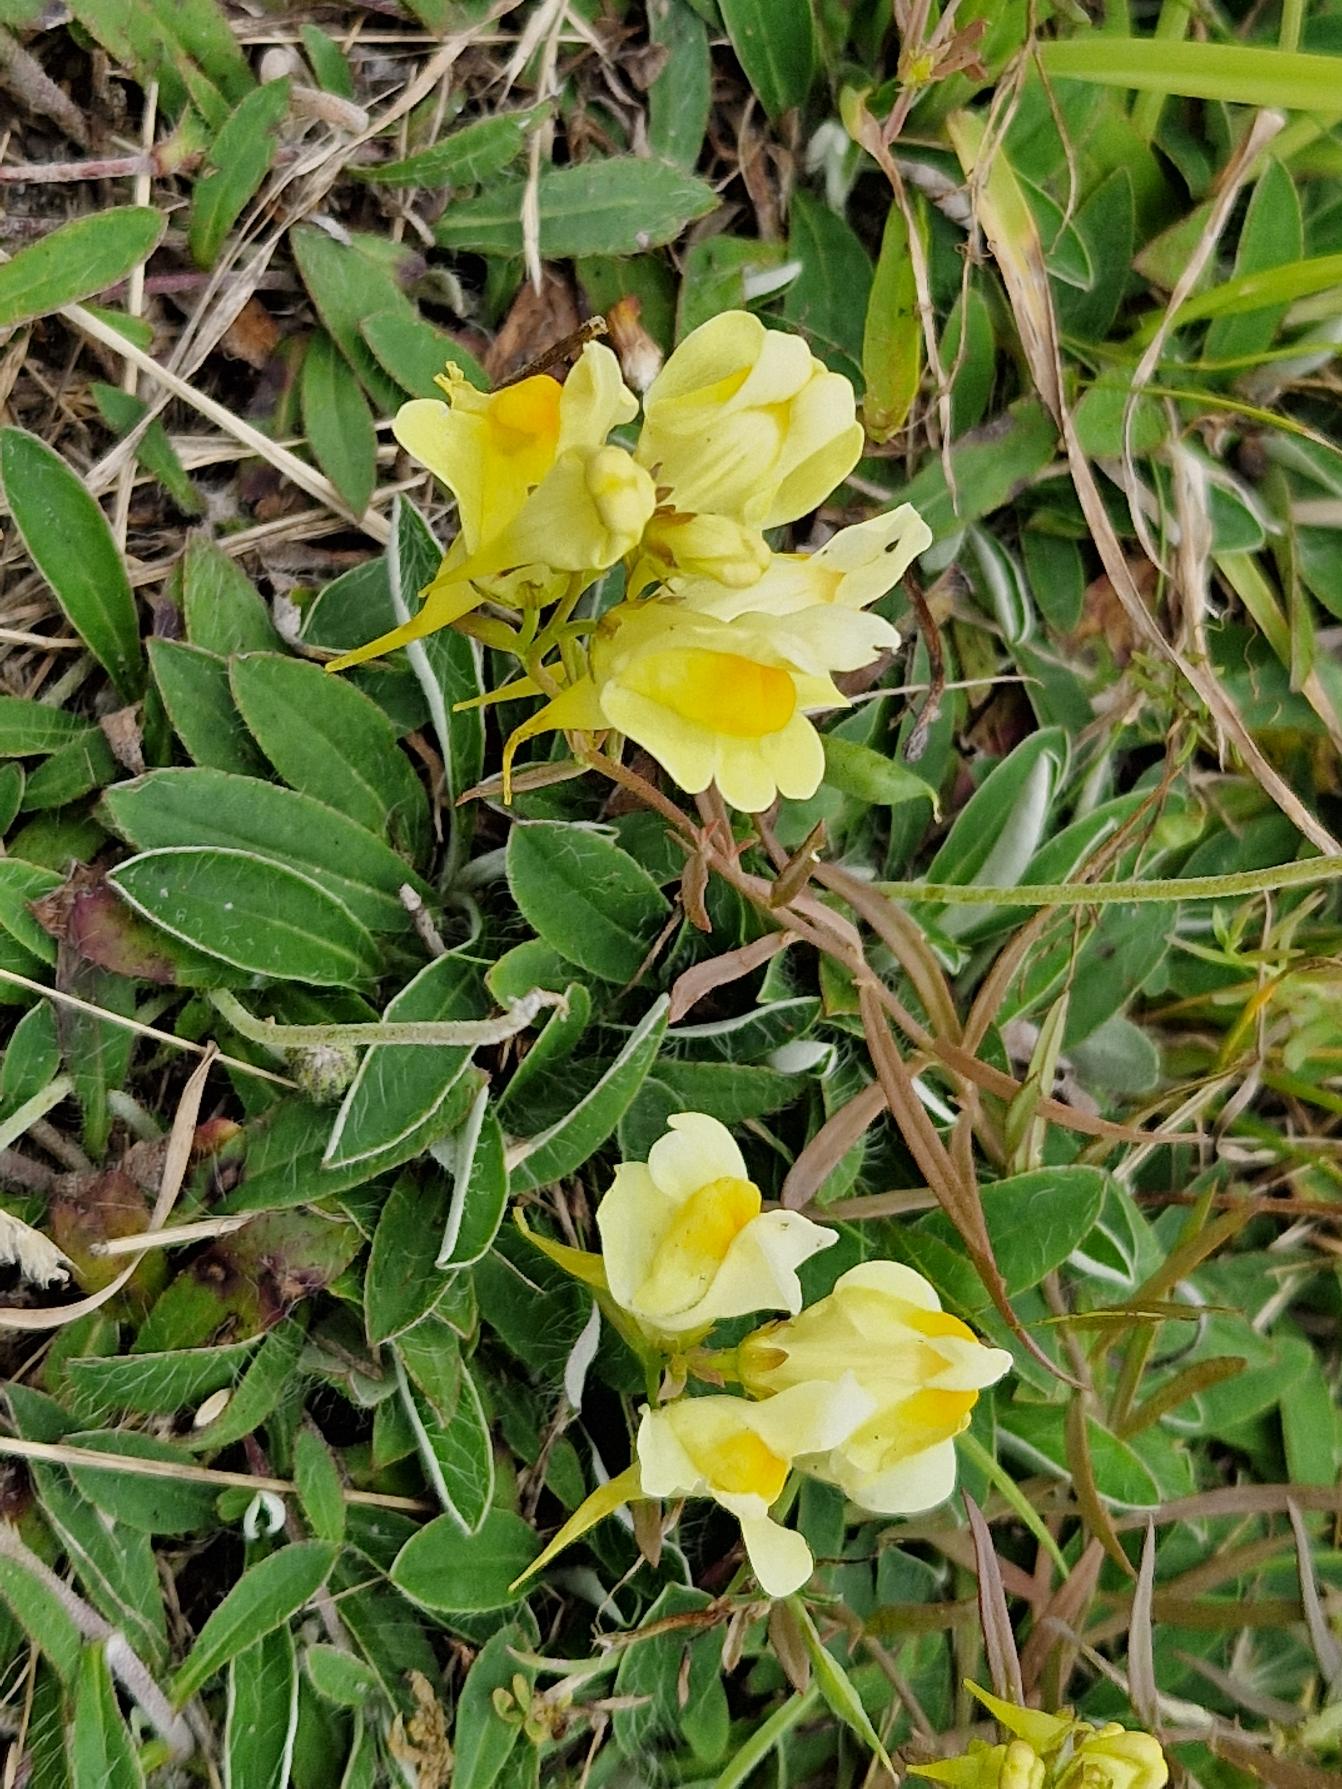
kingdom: Plantae
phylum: Tracheophyta
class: Magnoliopsida
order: Lamiales
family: Plantaginaceae
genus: Linaria
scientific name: Linaria vulgaris
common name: Almindelig torskemund
